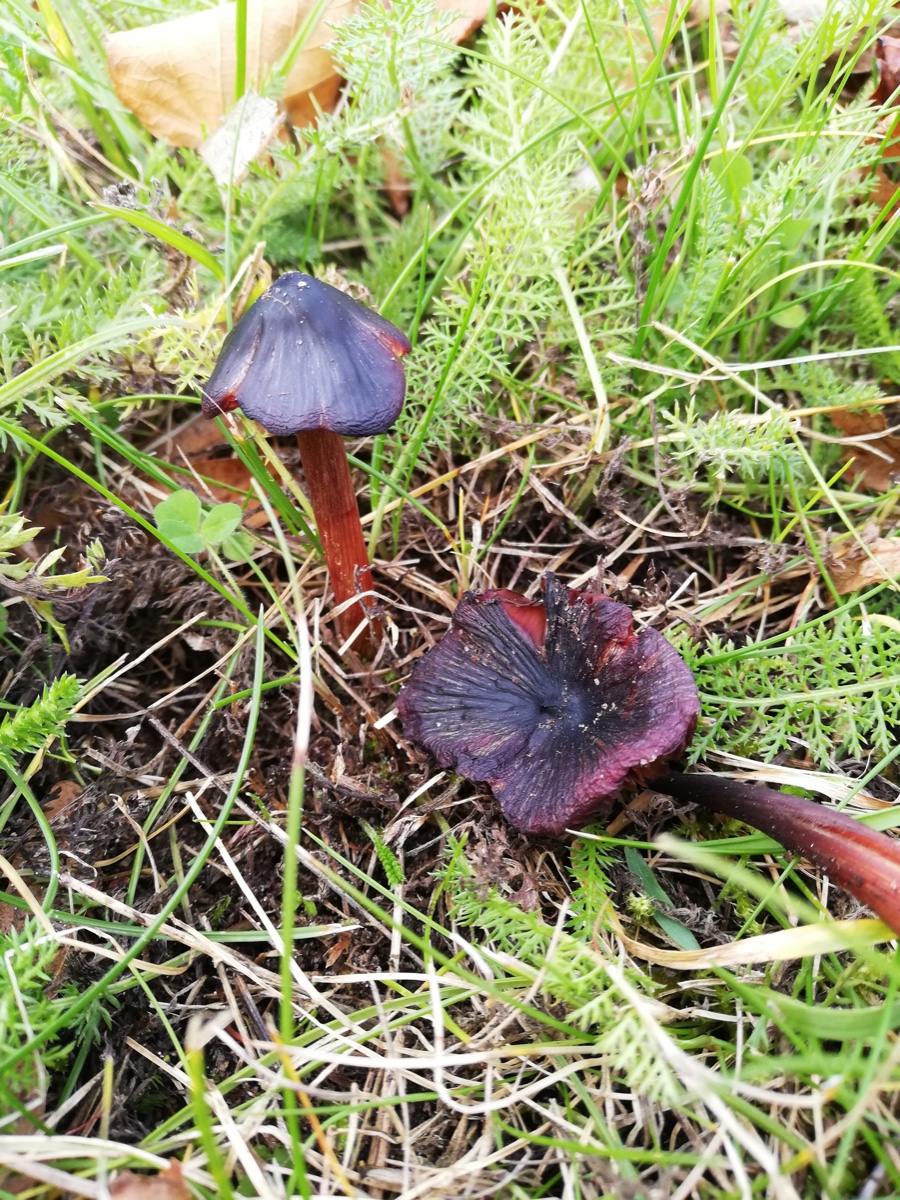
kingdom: Fungi
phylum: Basidiomycota
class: Agaricomycetes
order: Agaricales
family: Hygrophoraceae
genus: Hygrocybe
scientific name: Hygrocybe conica
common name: kegle-vokshat
